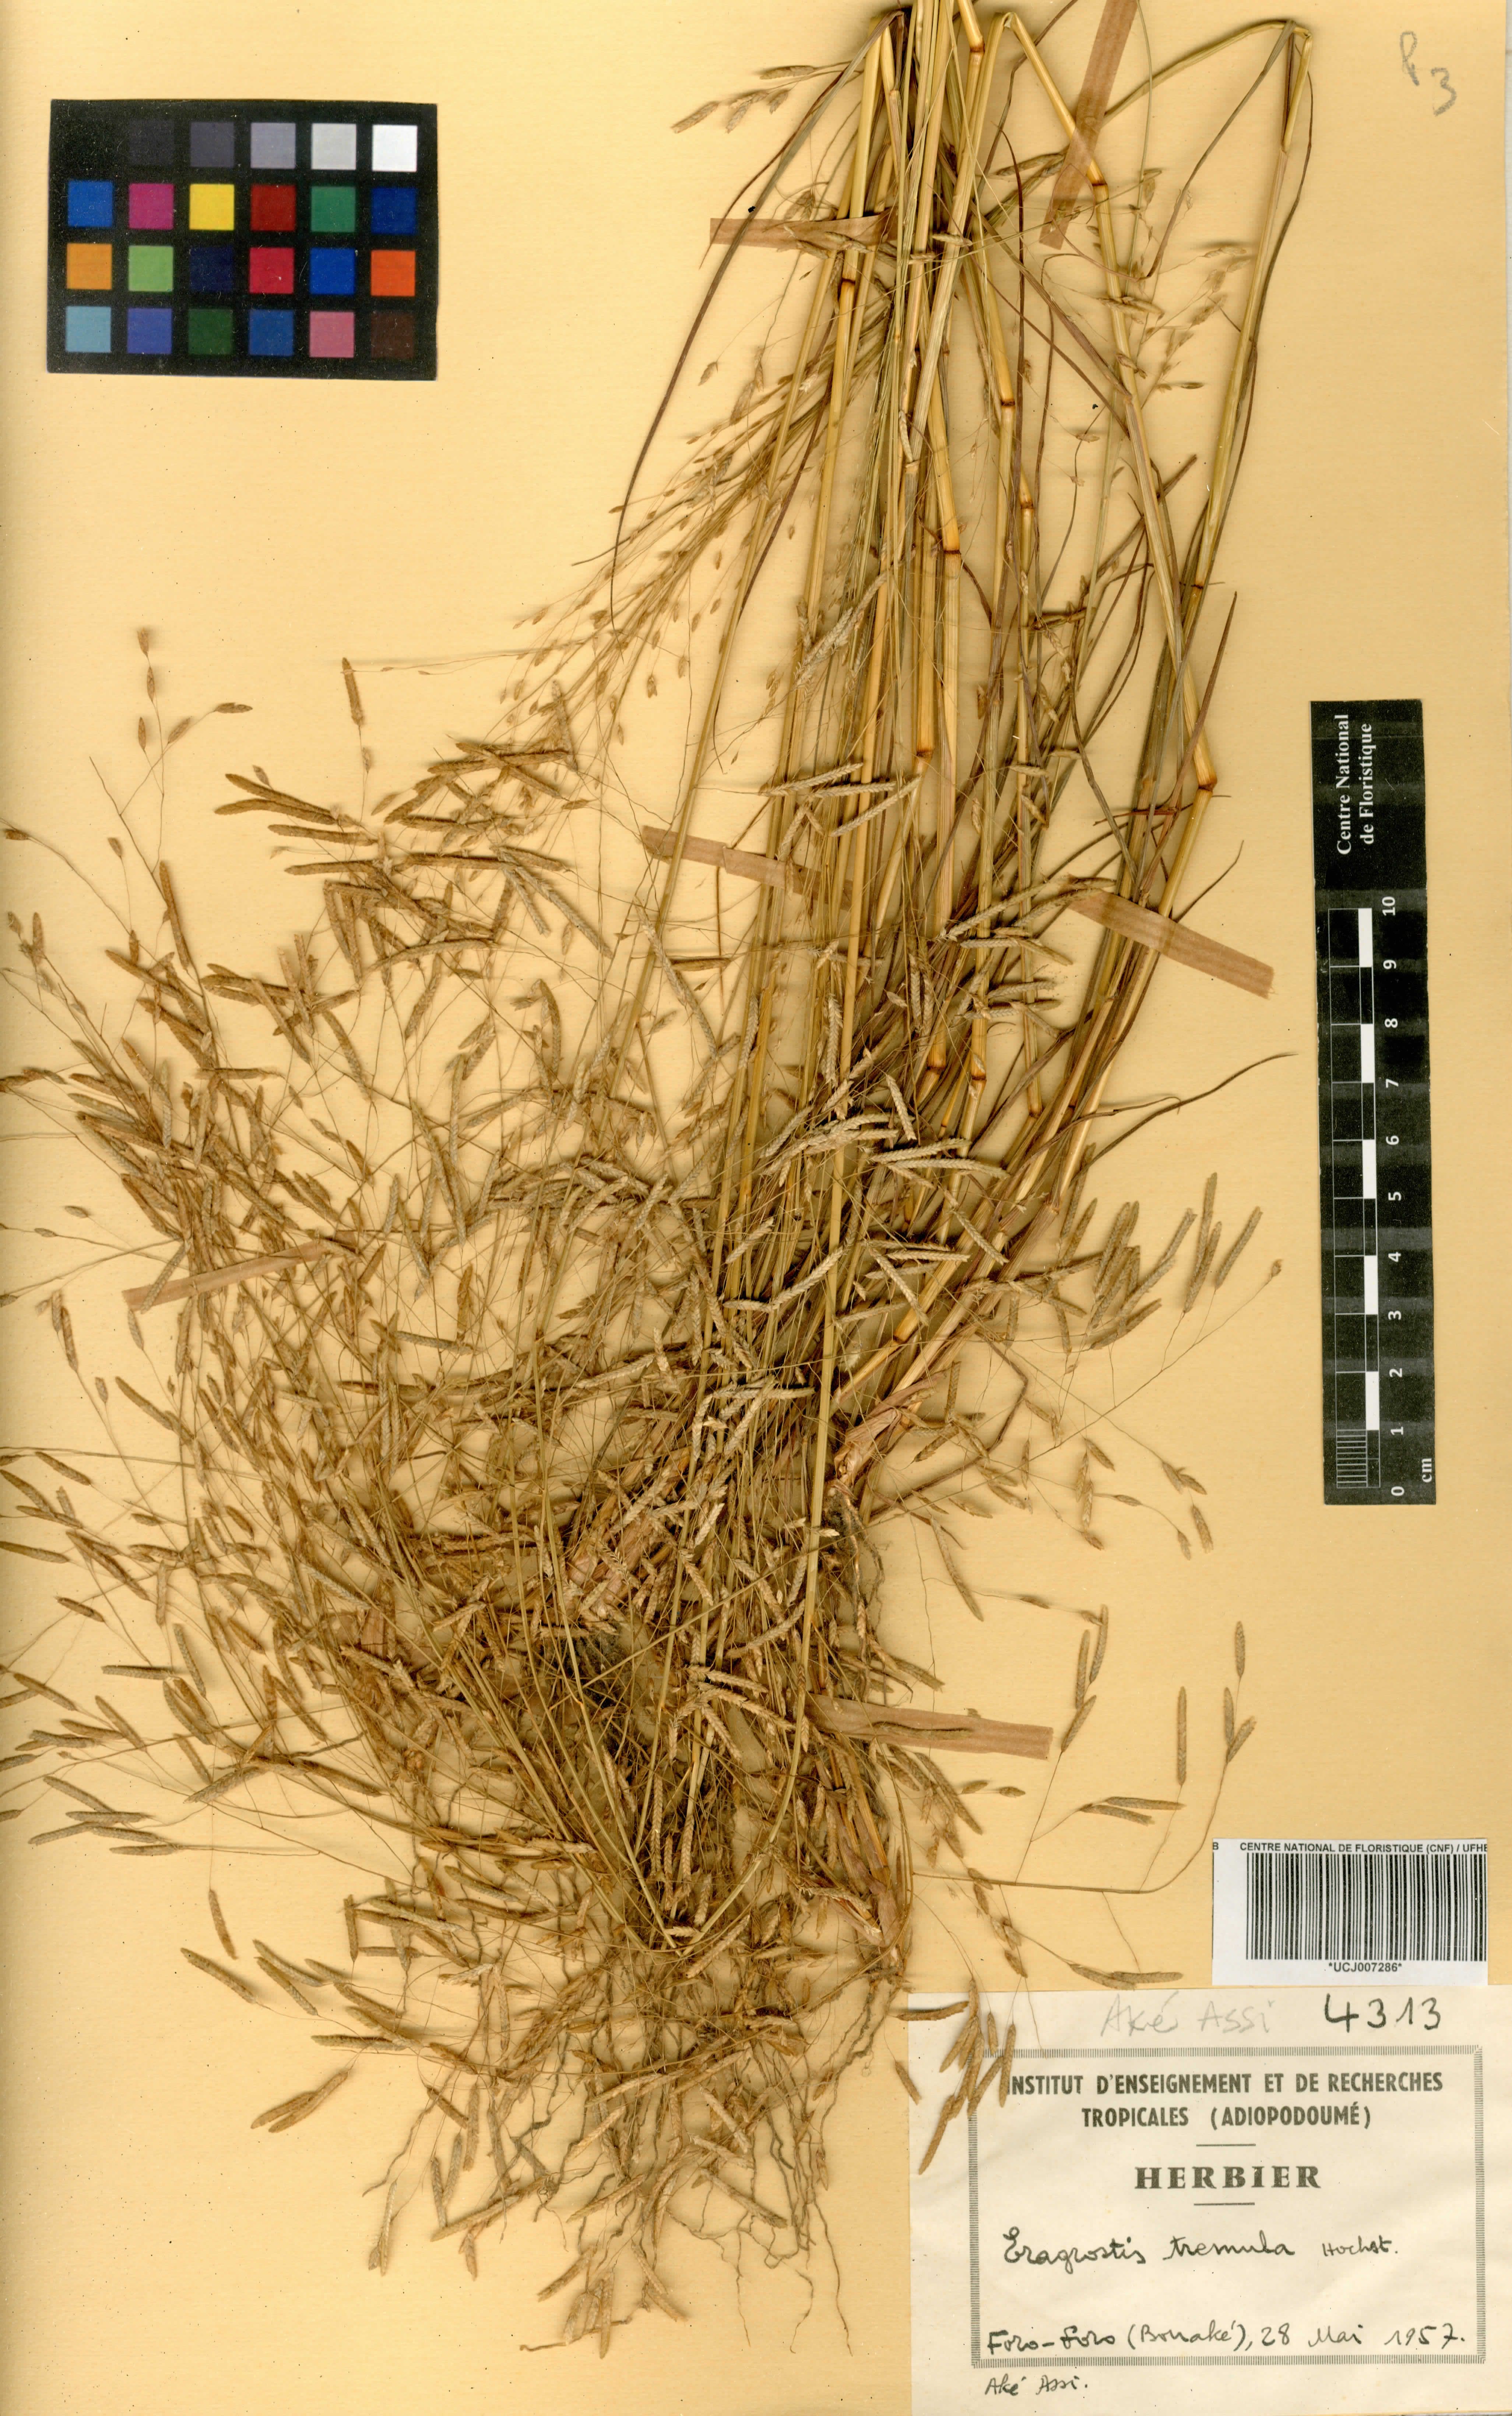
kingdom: Plantae
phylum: Tracheophyta
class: Liliopsida
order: Poales
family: Poaceae
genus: Eragrostis
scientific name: Eragrostis tremula
